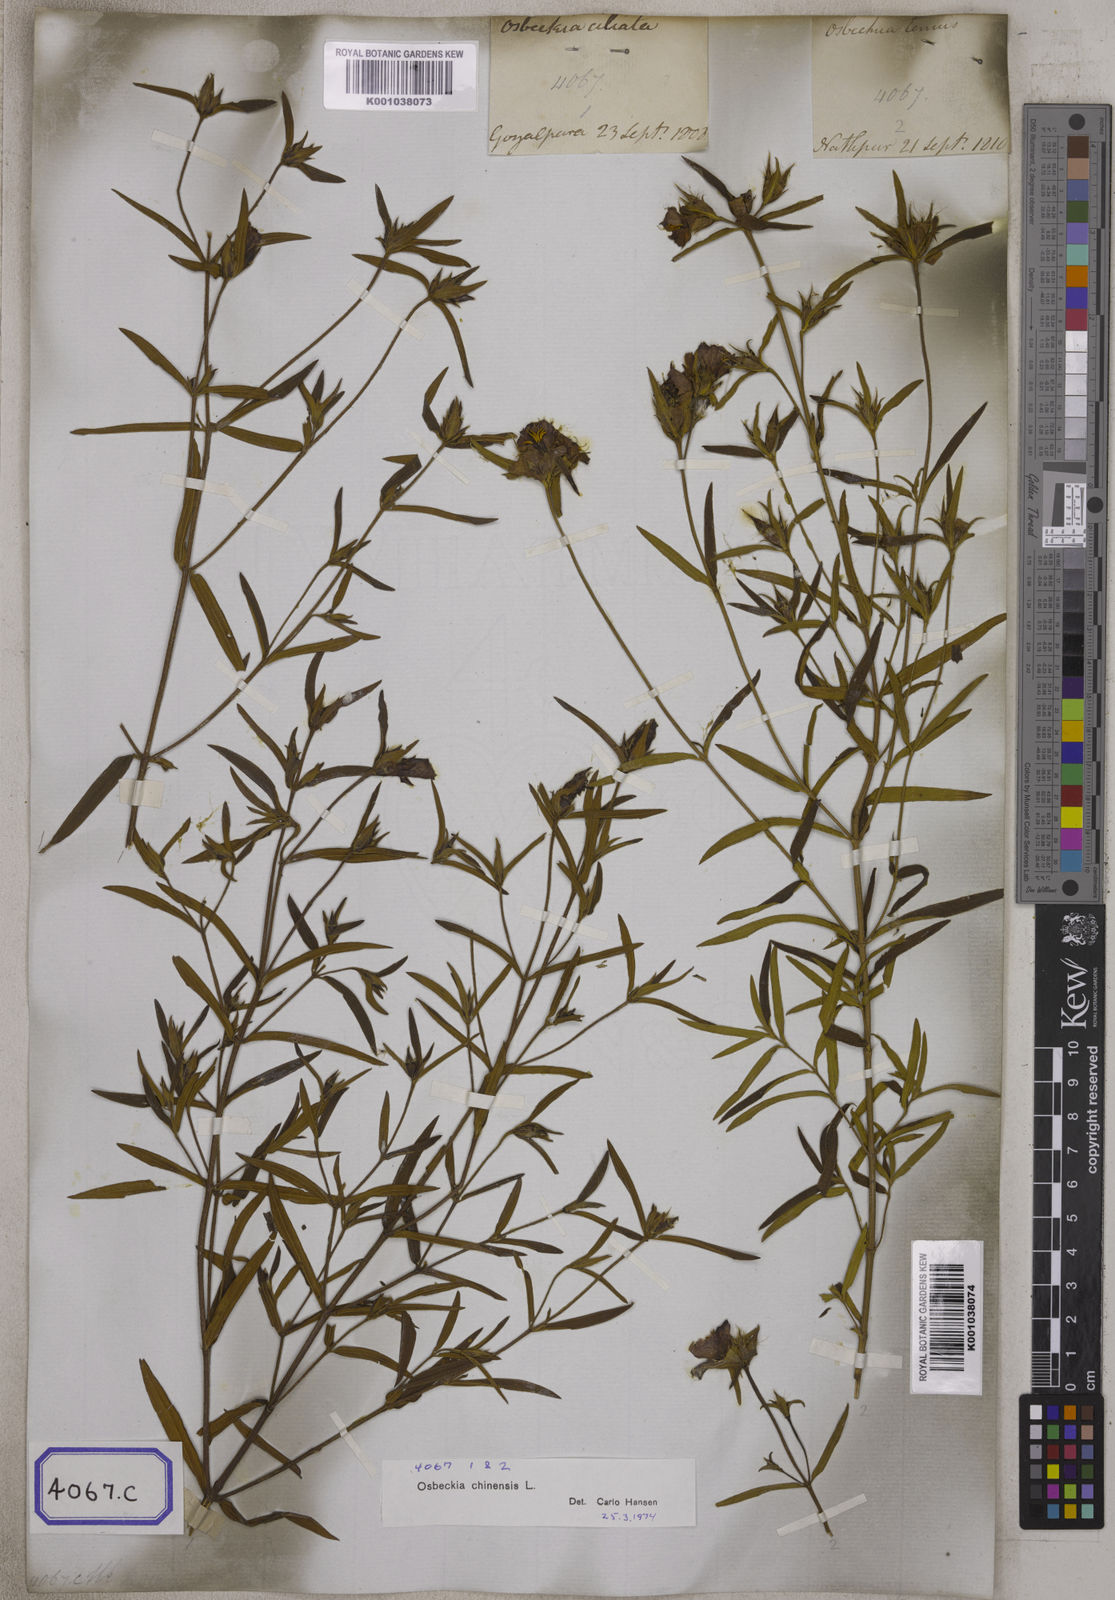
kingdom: Plantae
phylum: Tracheophyta
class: Magnoliopsida
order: Myrtales
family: Melastomataceae
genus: Osbeckia
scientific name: Osbeckia chinensis
